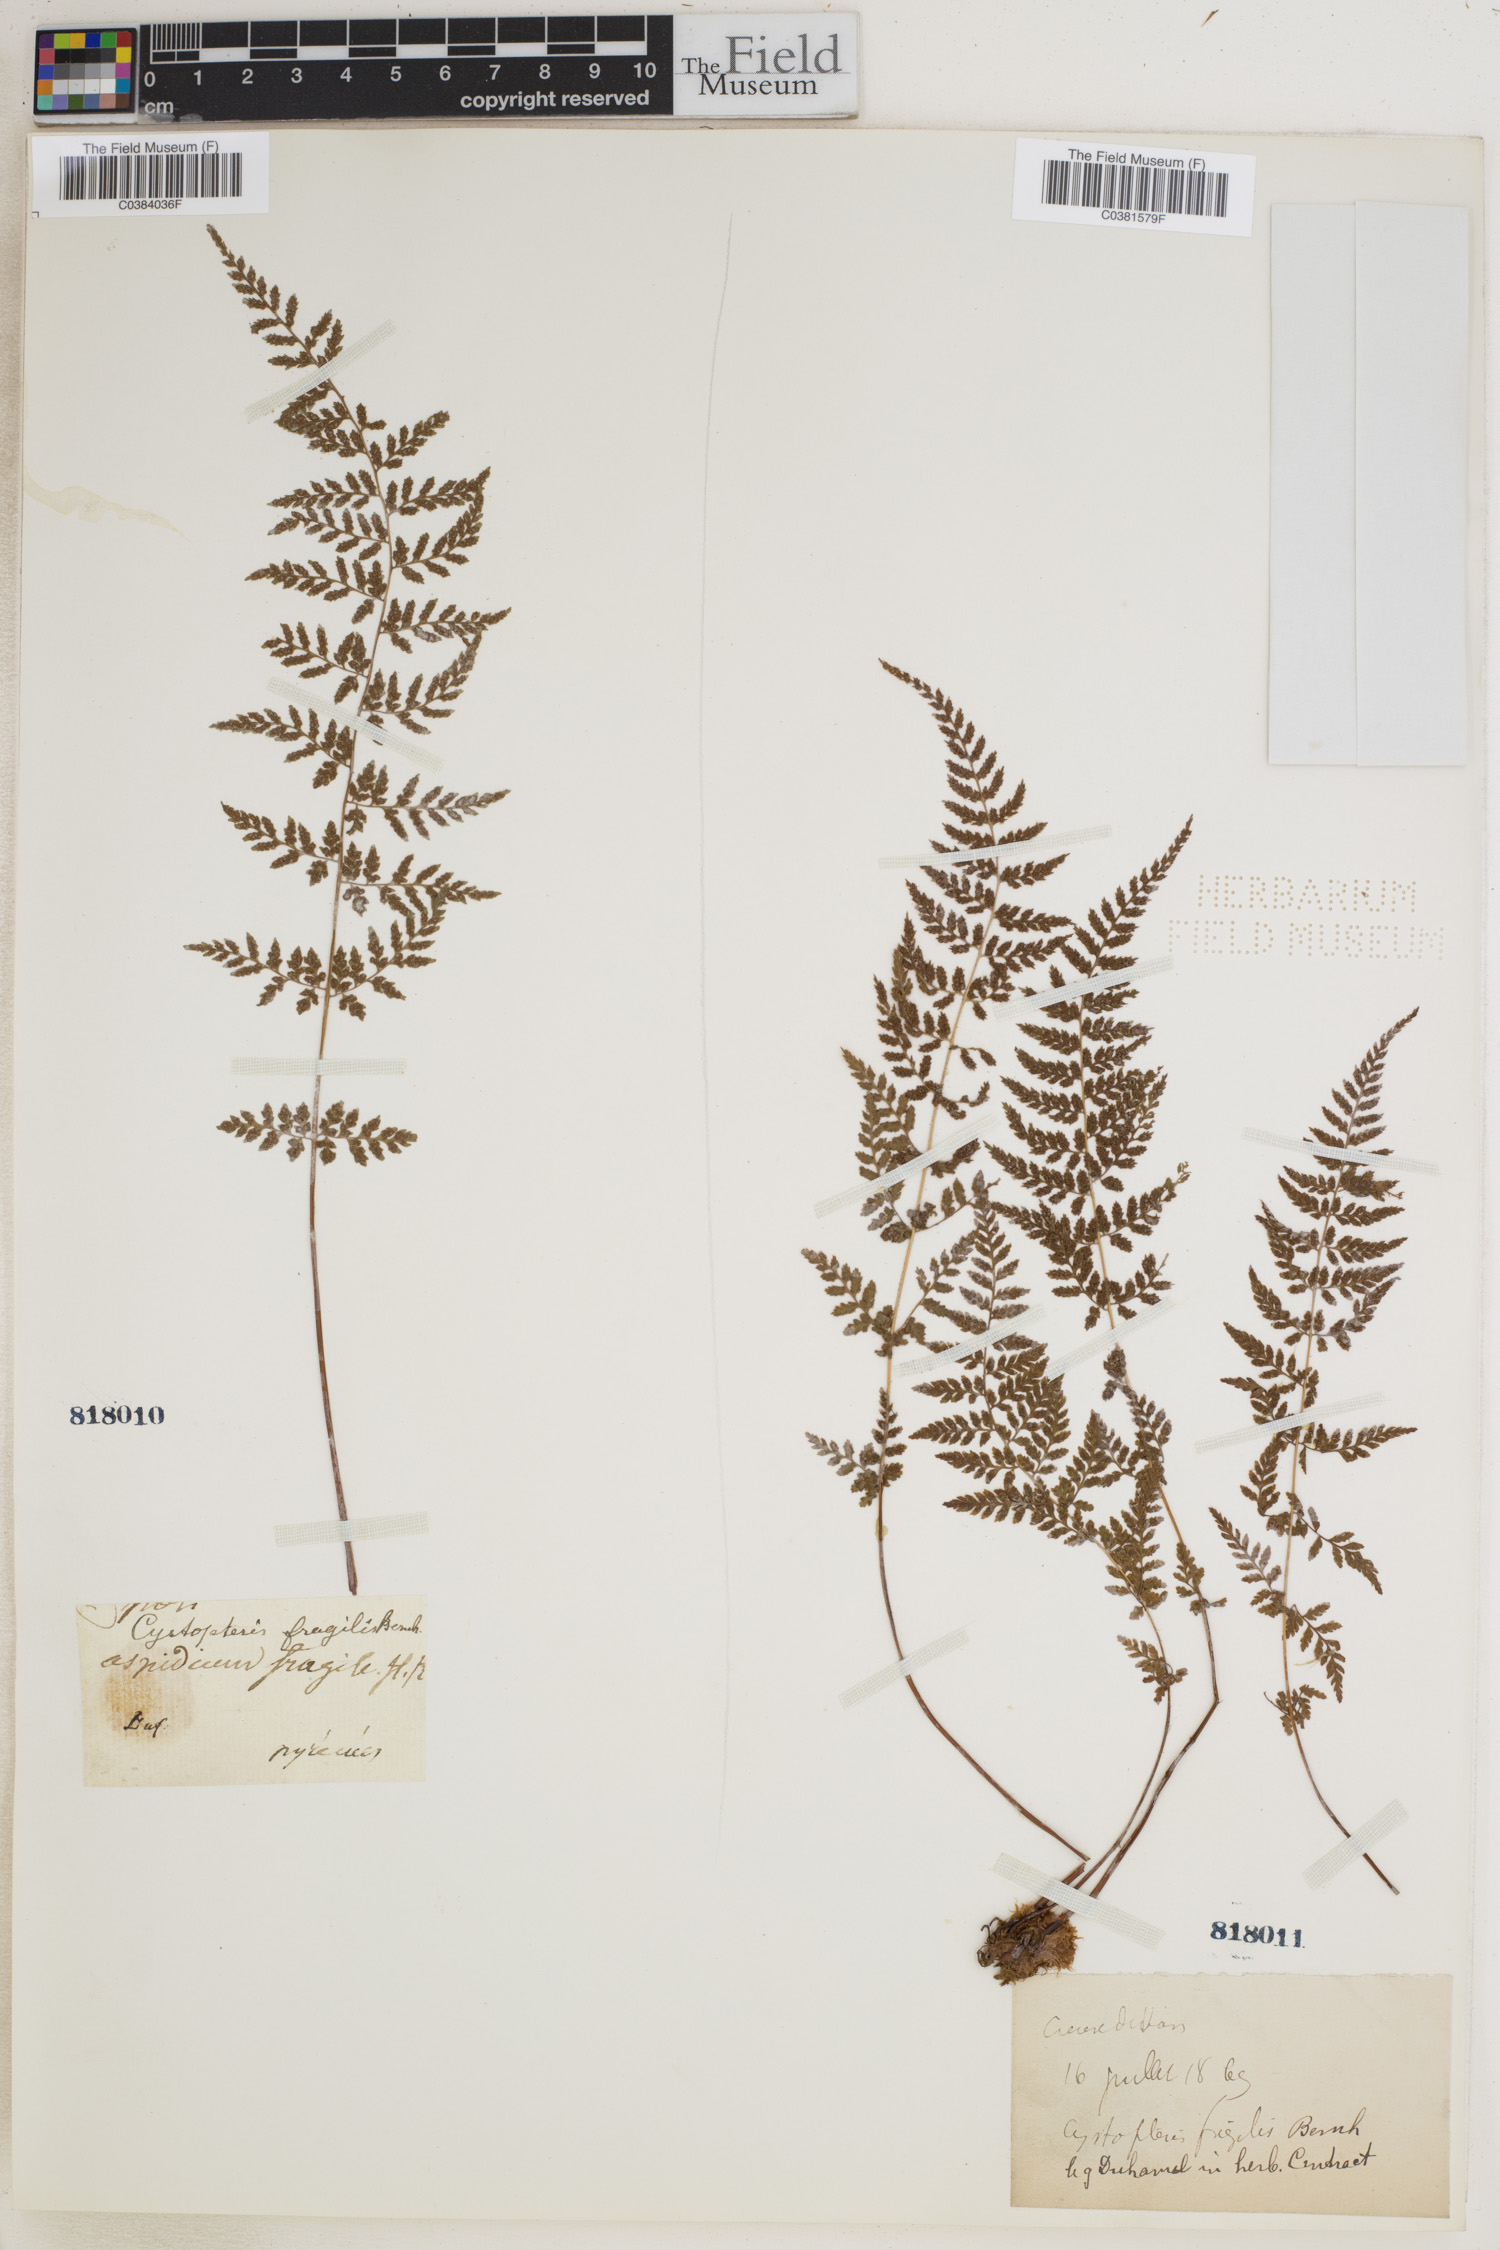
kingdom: Plantae
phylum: Tracheophyta
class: Polypodiopsida
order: Polypodiales
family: Cystopteridaceae
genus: Cystopteris
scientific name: Cystopteris fragilis
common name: Brittle bladder fern
